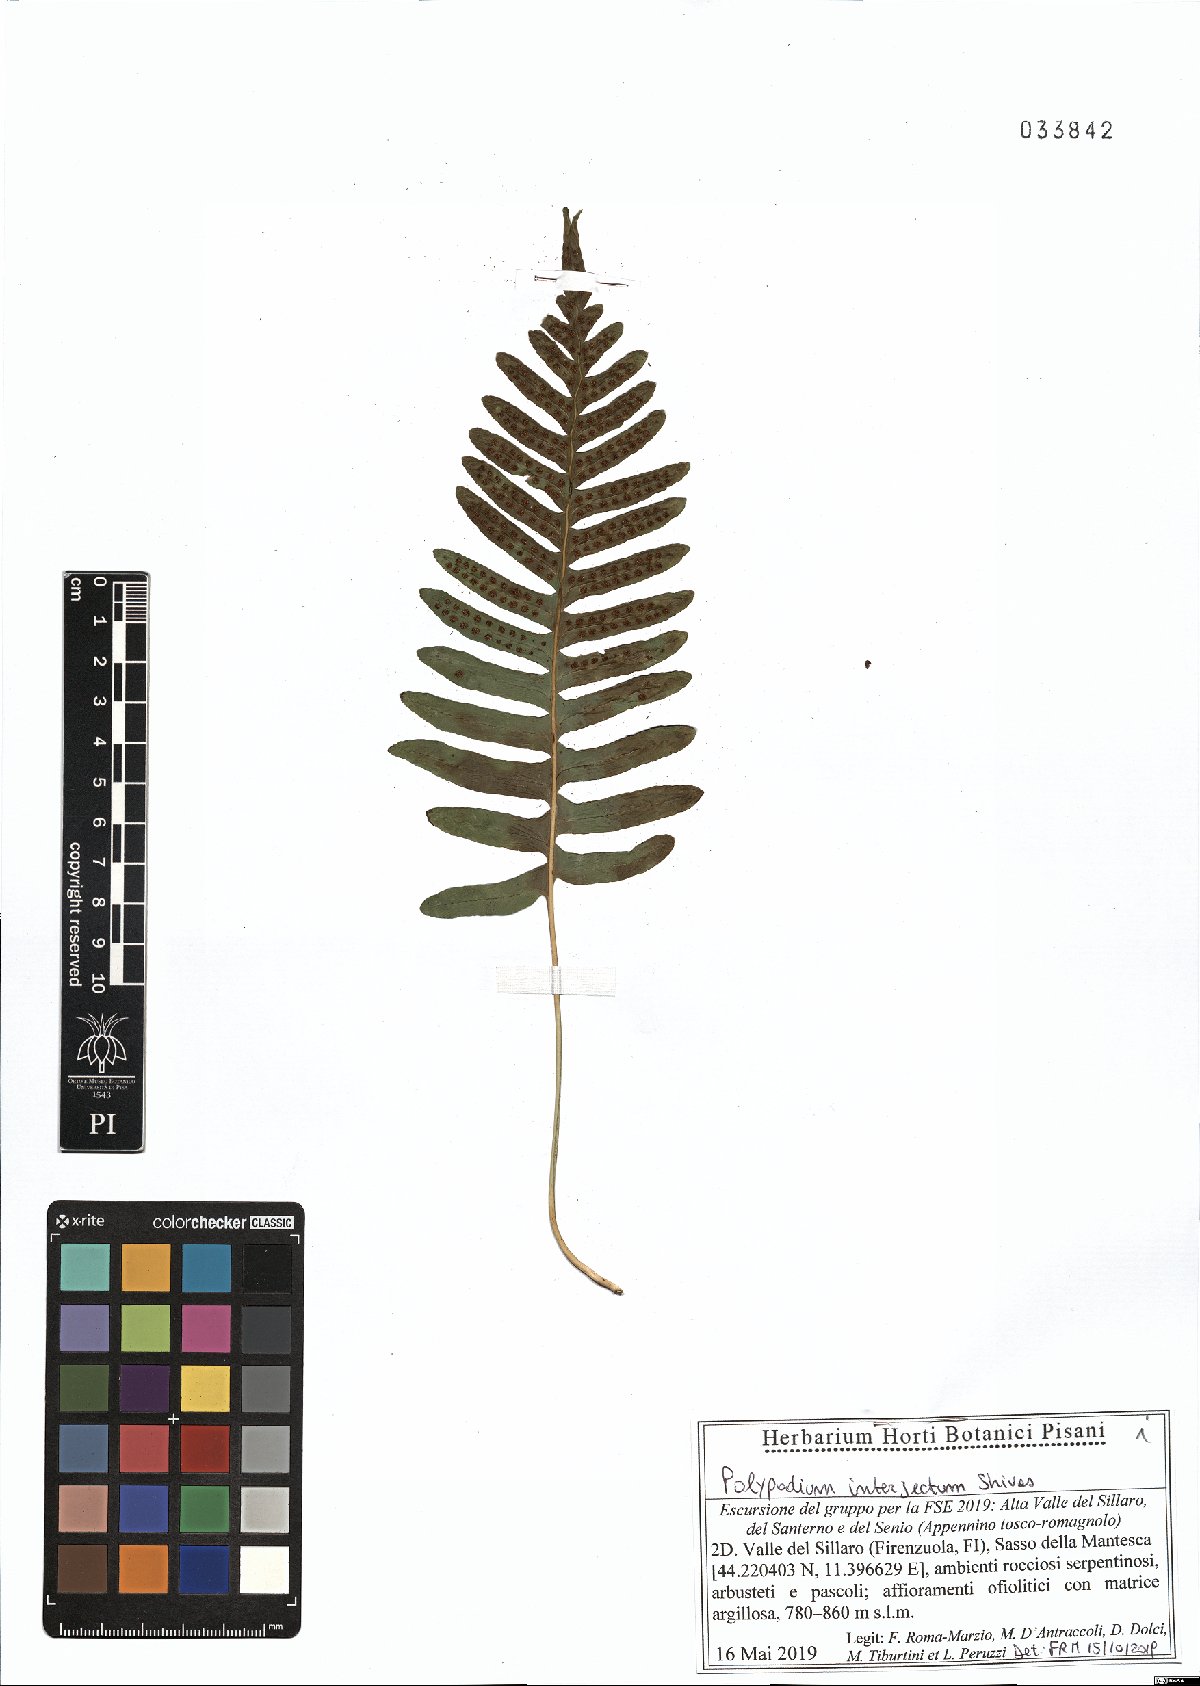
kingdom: Plantae
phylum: Tracheophyta
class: Polypodiopsida
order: Polypodiales
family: Polypodiaceae
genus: Polypodium
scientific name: Polypodium interjectum
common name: Intermediate polypody
